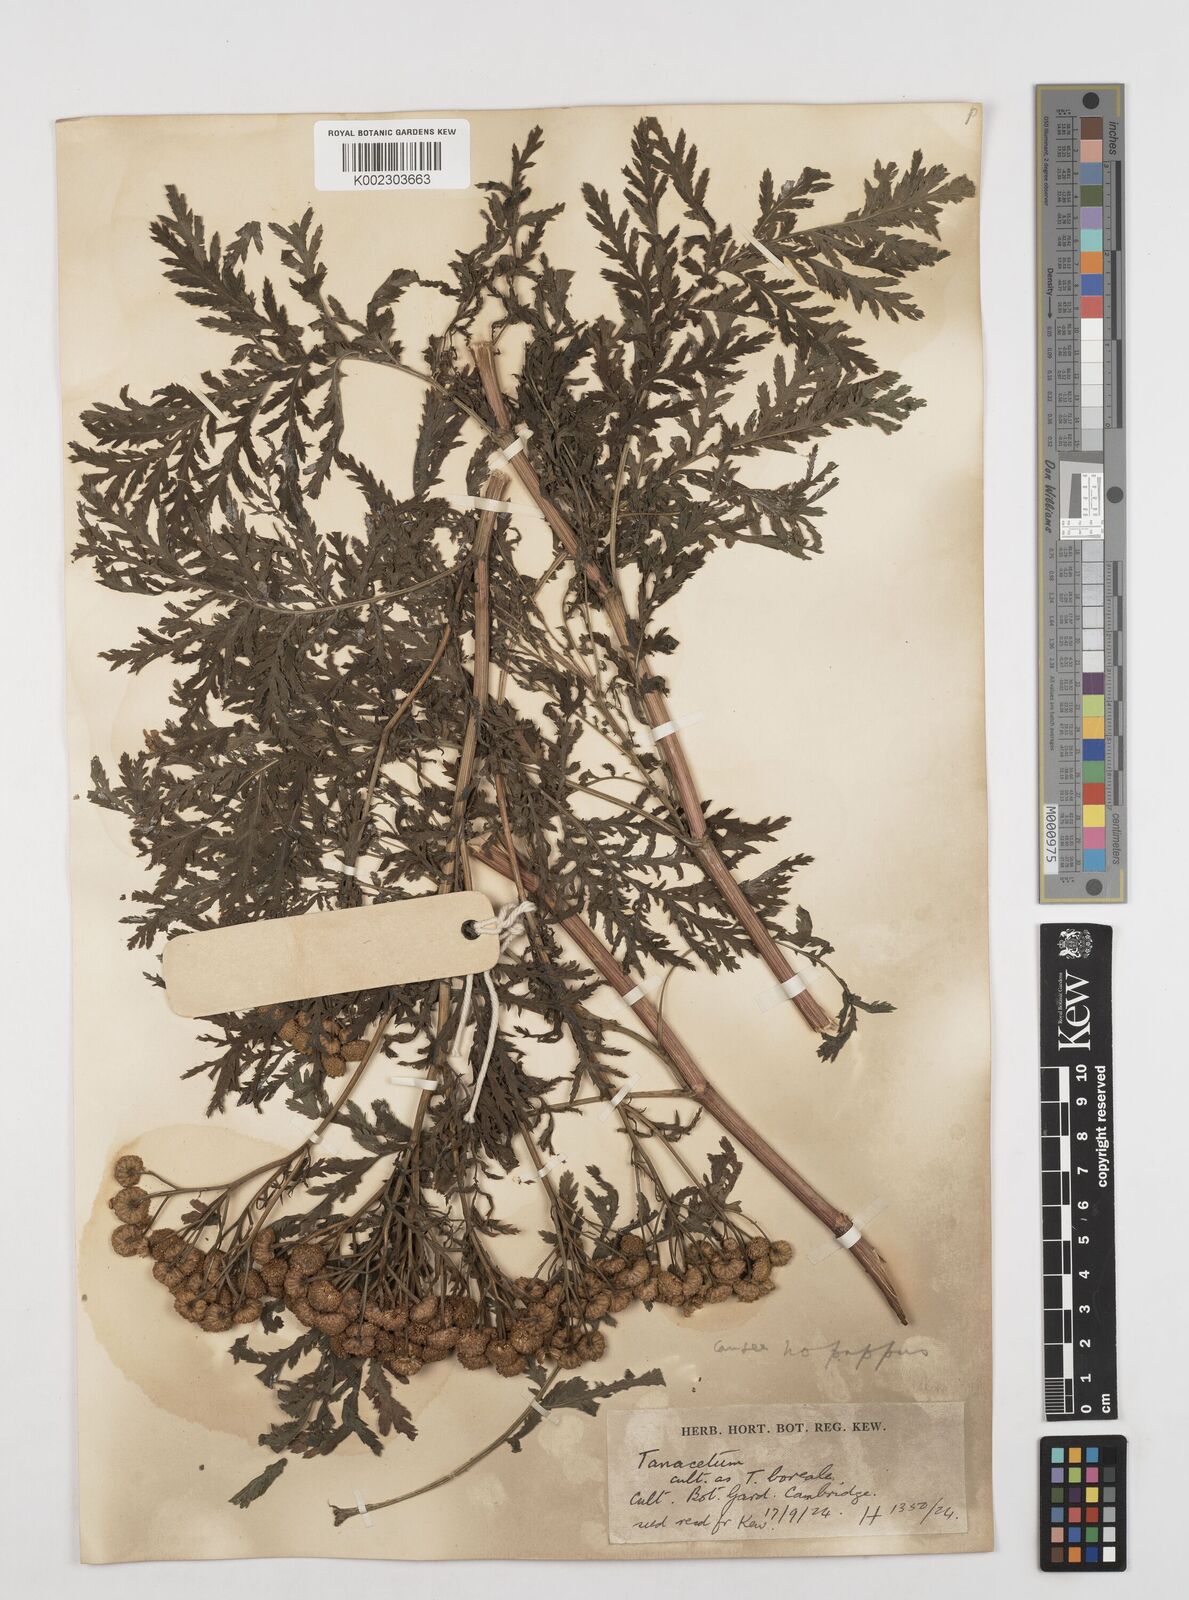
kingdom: Plantae
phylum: Tracheophyta
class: Magnoliopsida
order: Asterales
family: Asteraceae
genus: Tanacetum
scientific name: Tanacetum
